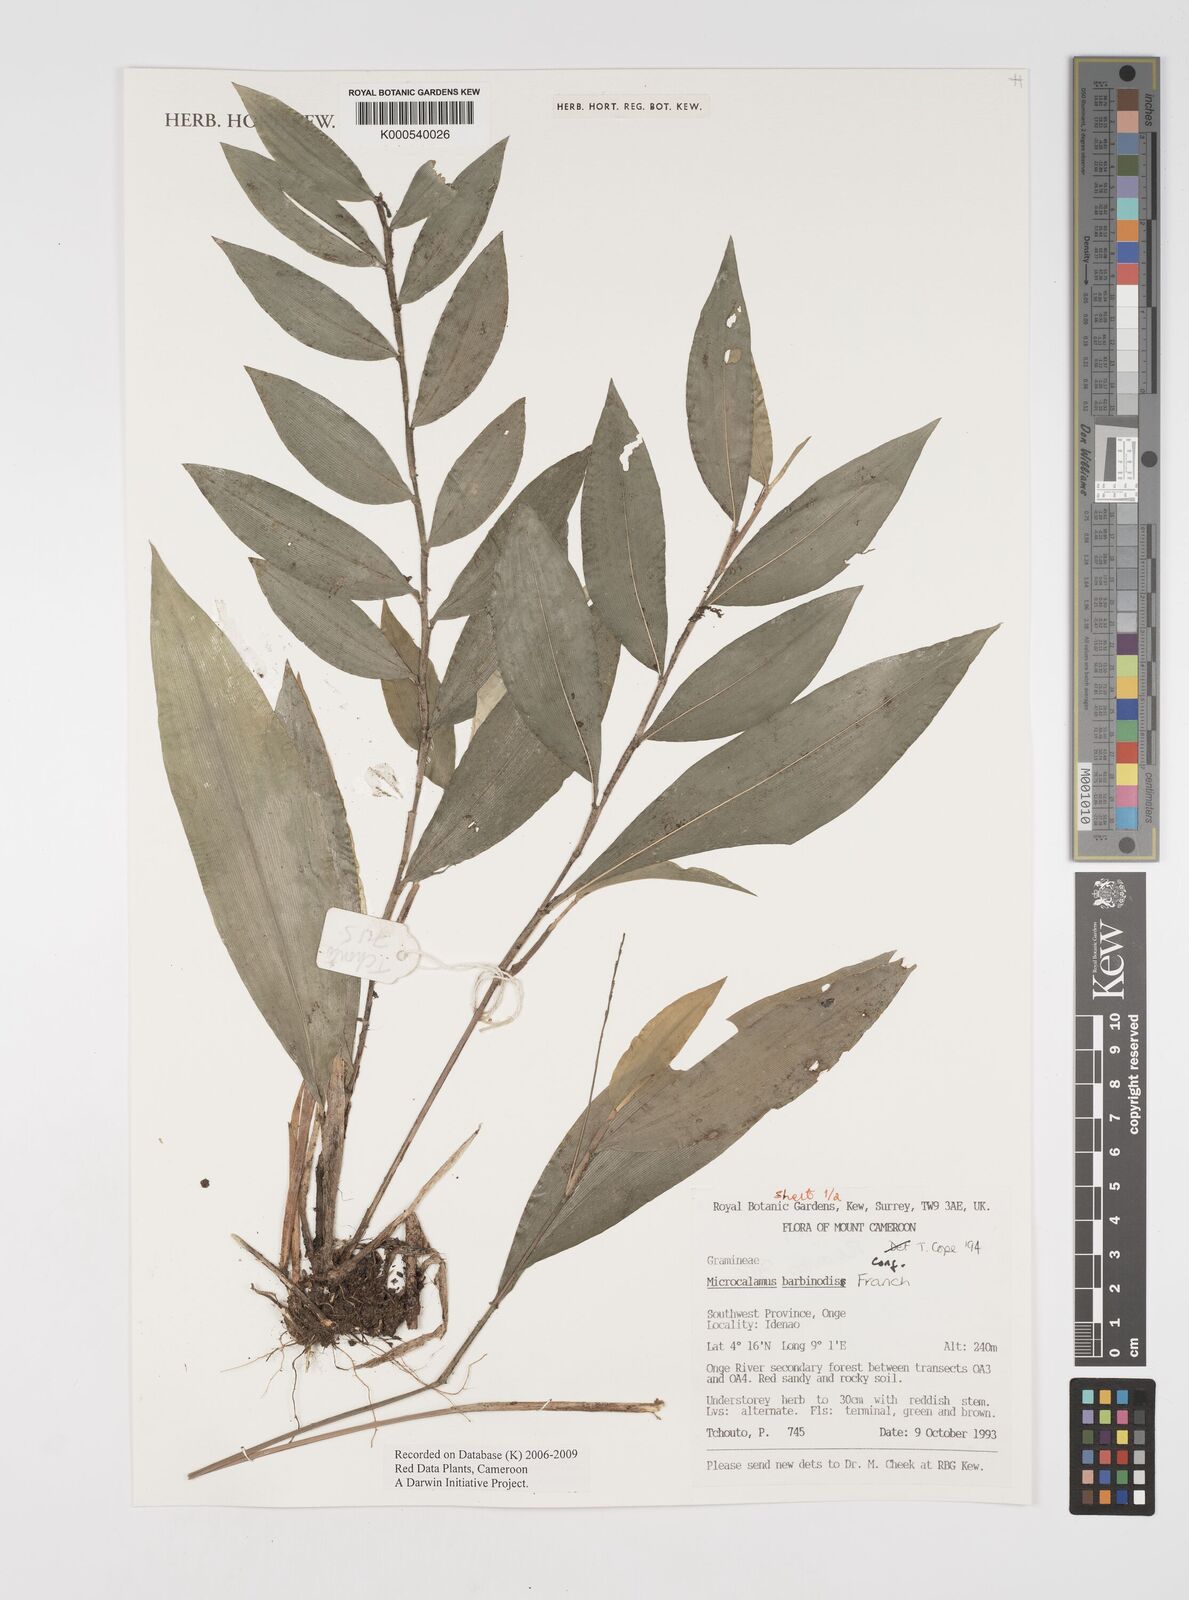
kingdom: Plantae
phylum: Tracheophyta
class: Liliopsida
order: Poales
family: Poaceae
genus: Microcalamus
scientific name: Microcalamus barbinodis
